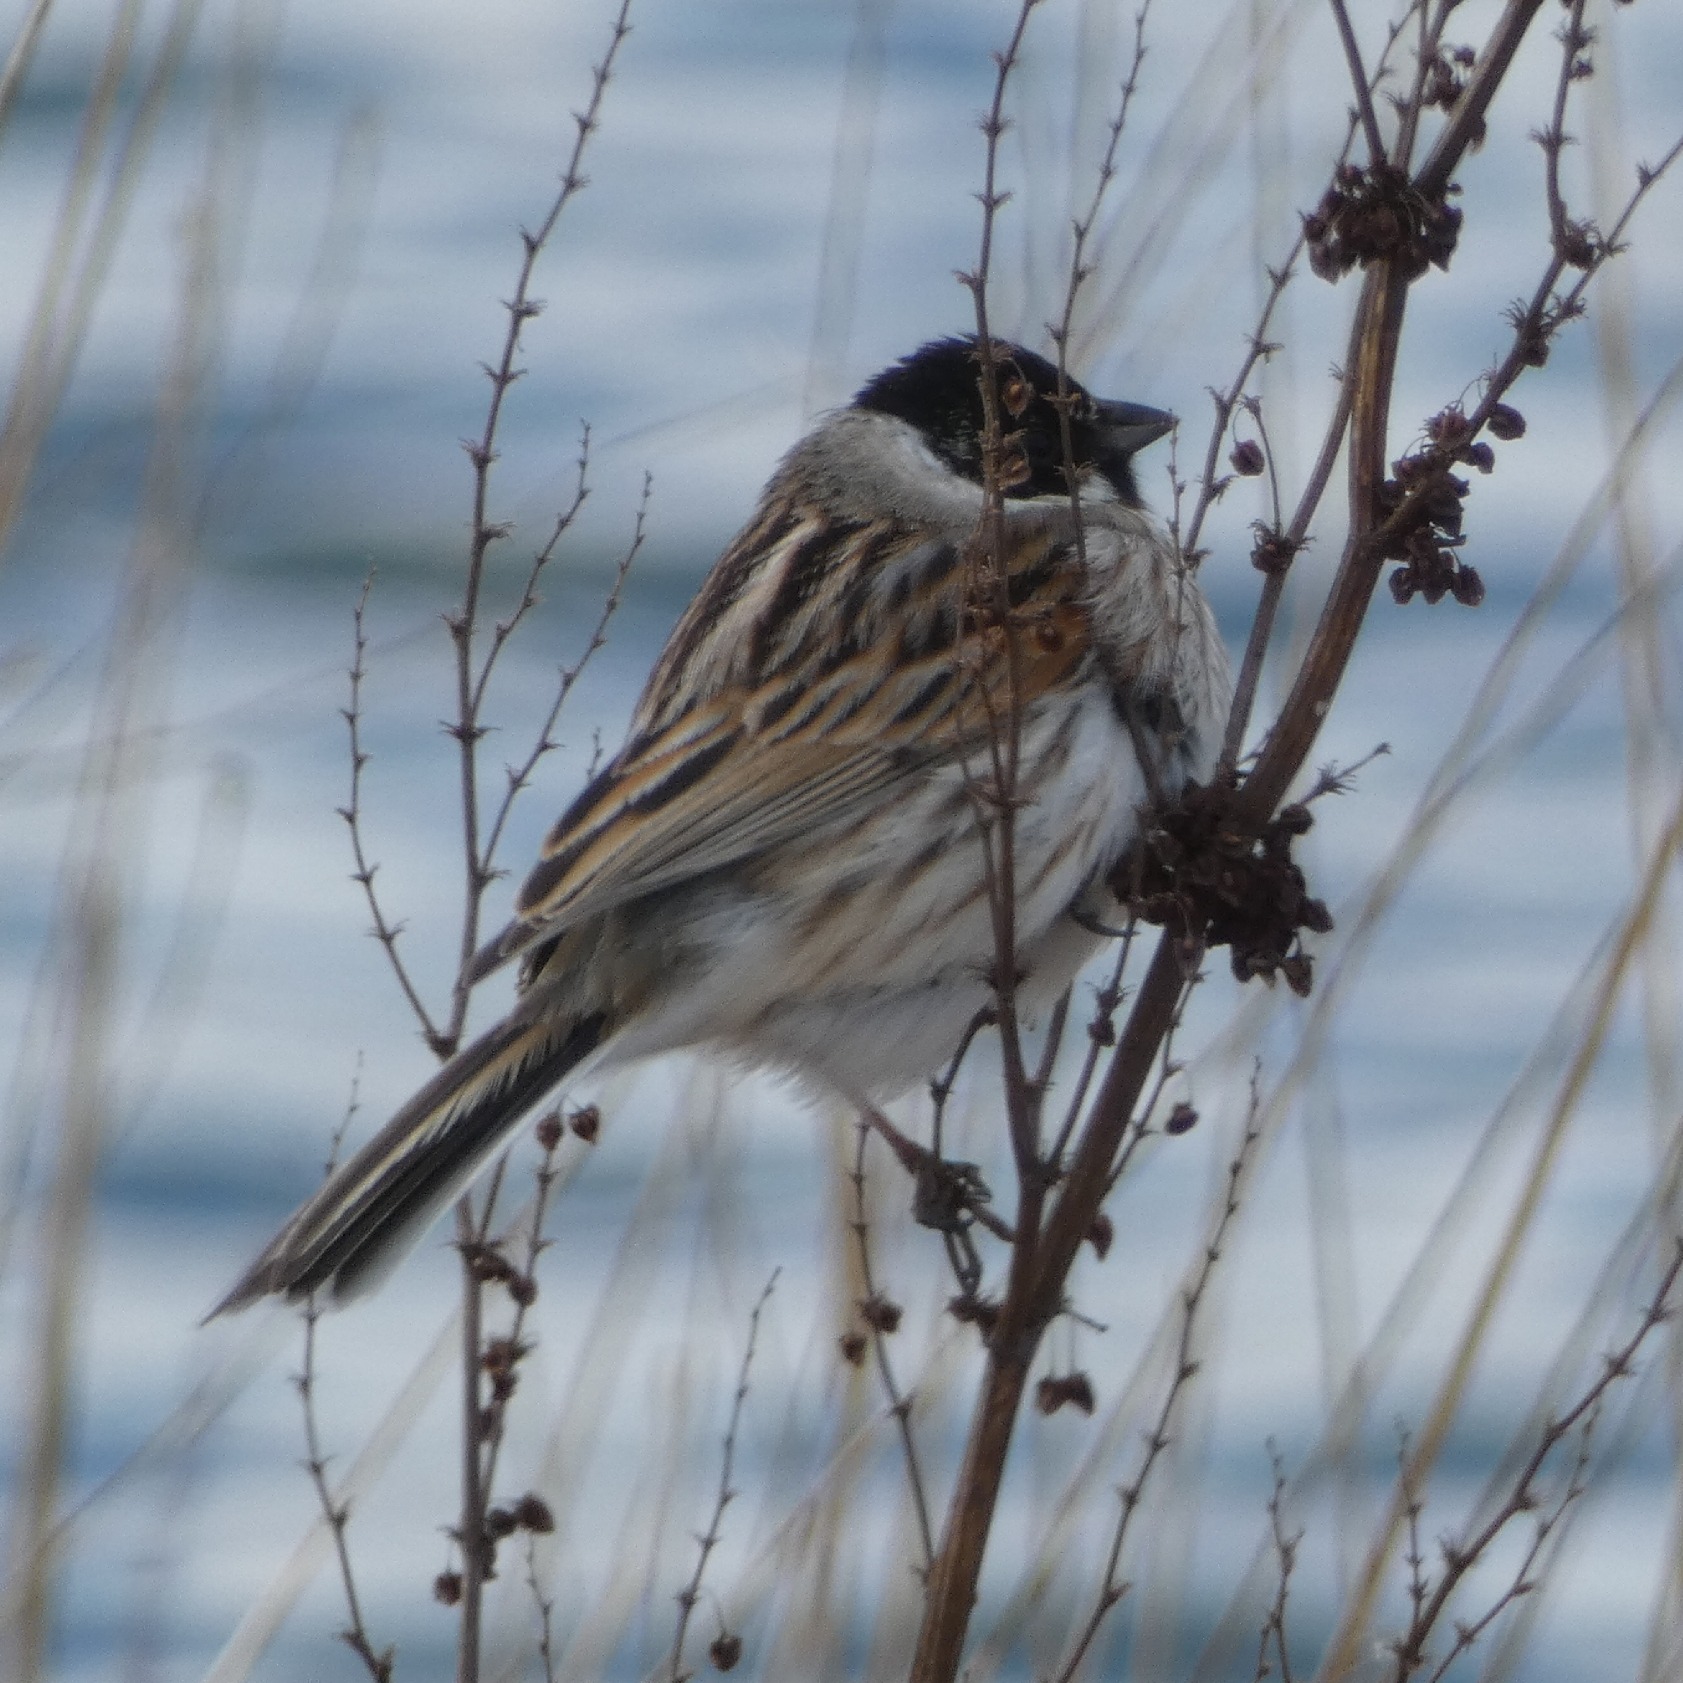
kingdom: Animalia
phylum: Chordata
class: Aves
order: Passeriformes
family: Emberizidae
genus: Emberiza
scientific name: Emberiza schoeniclus
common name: Rørspurv
